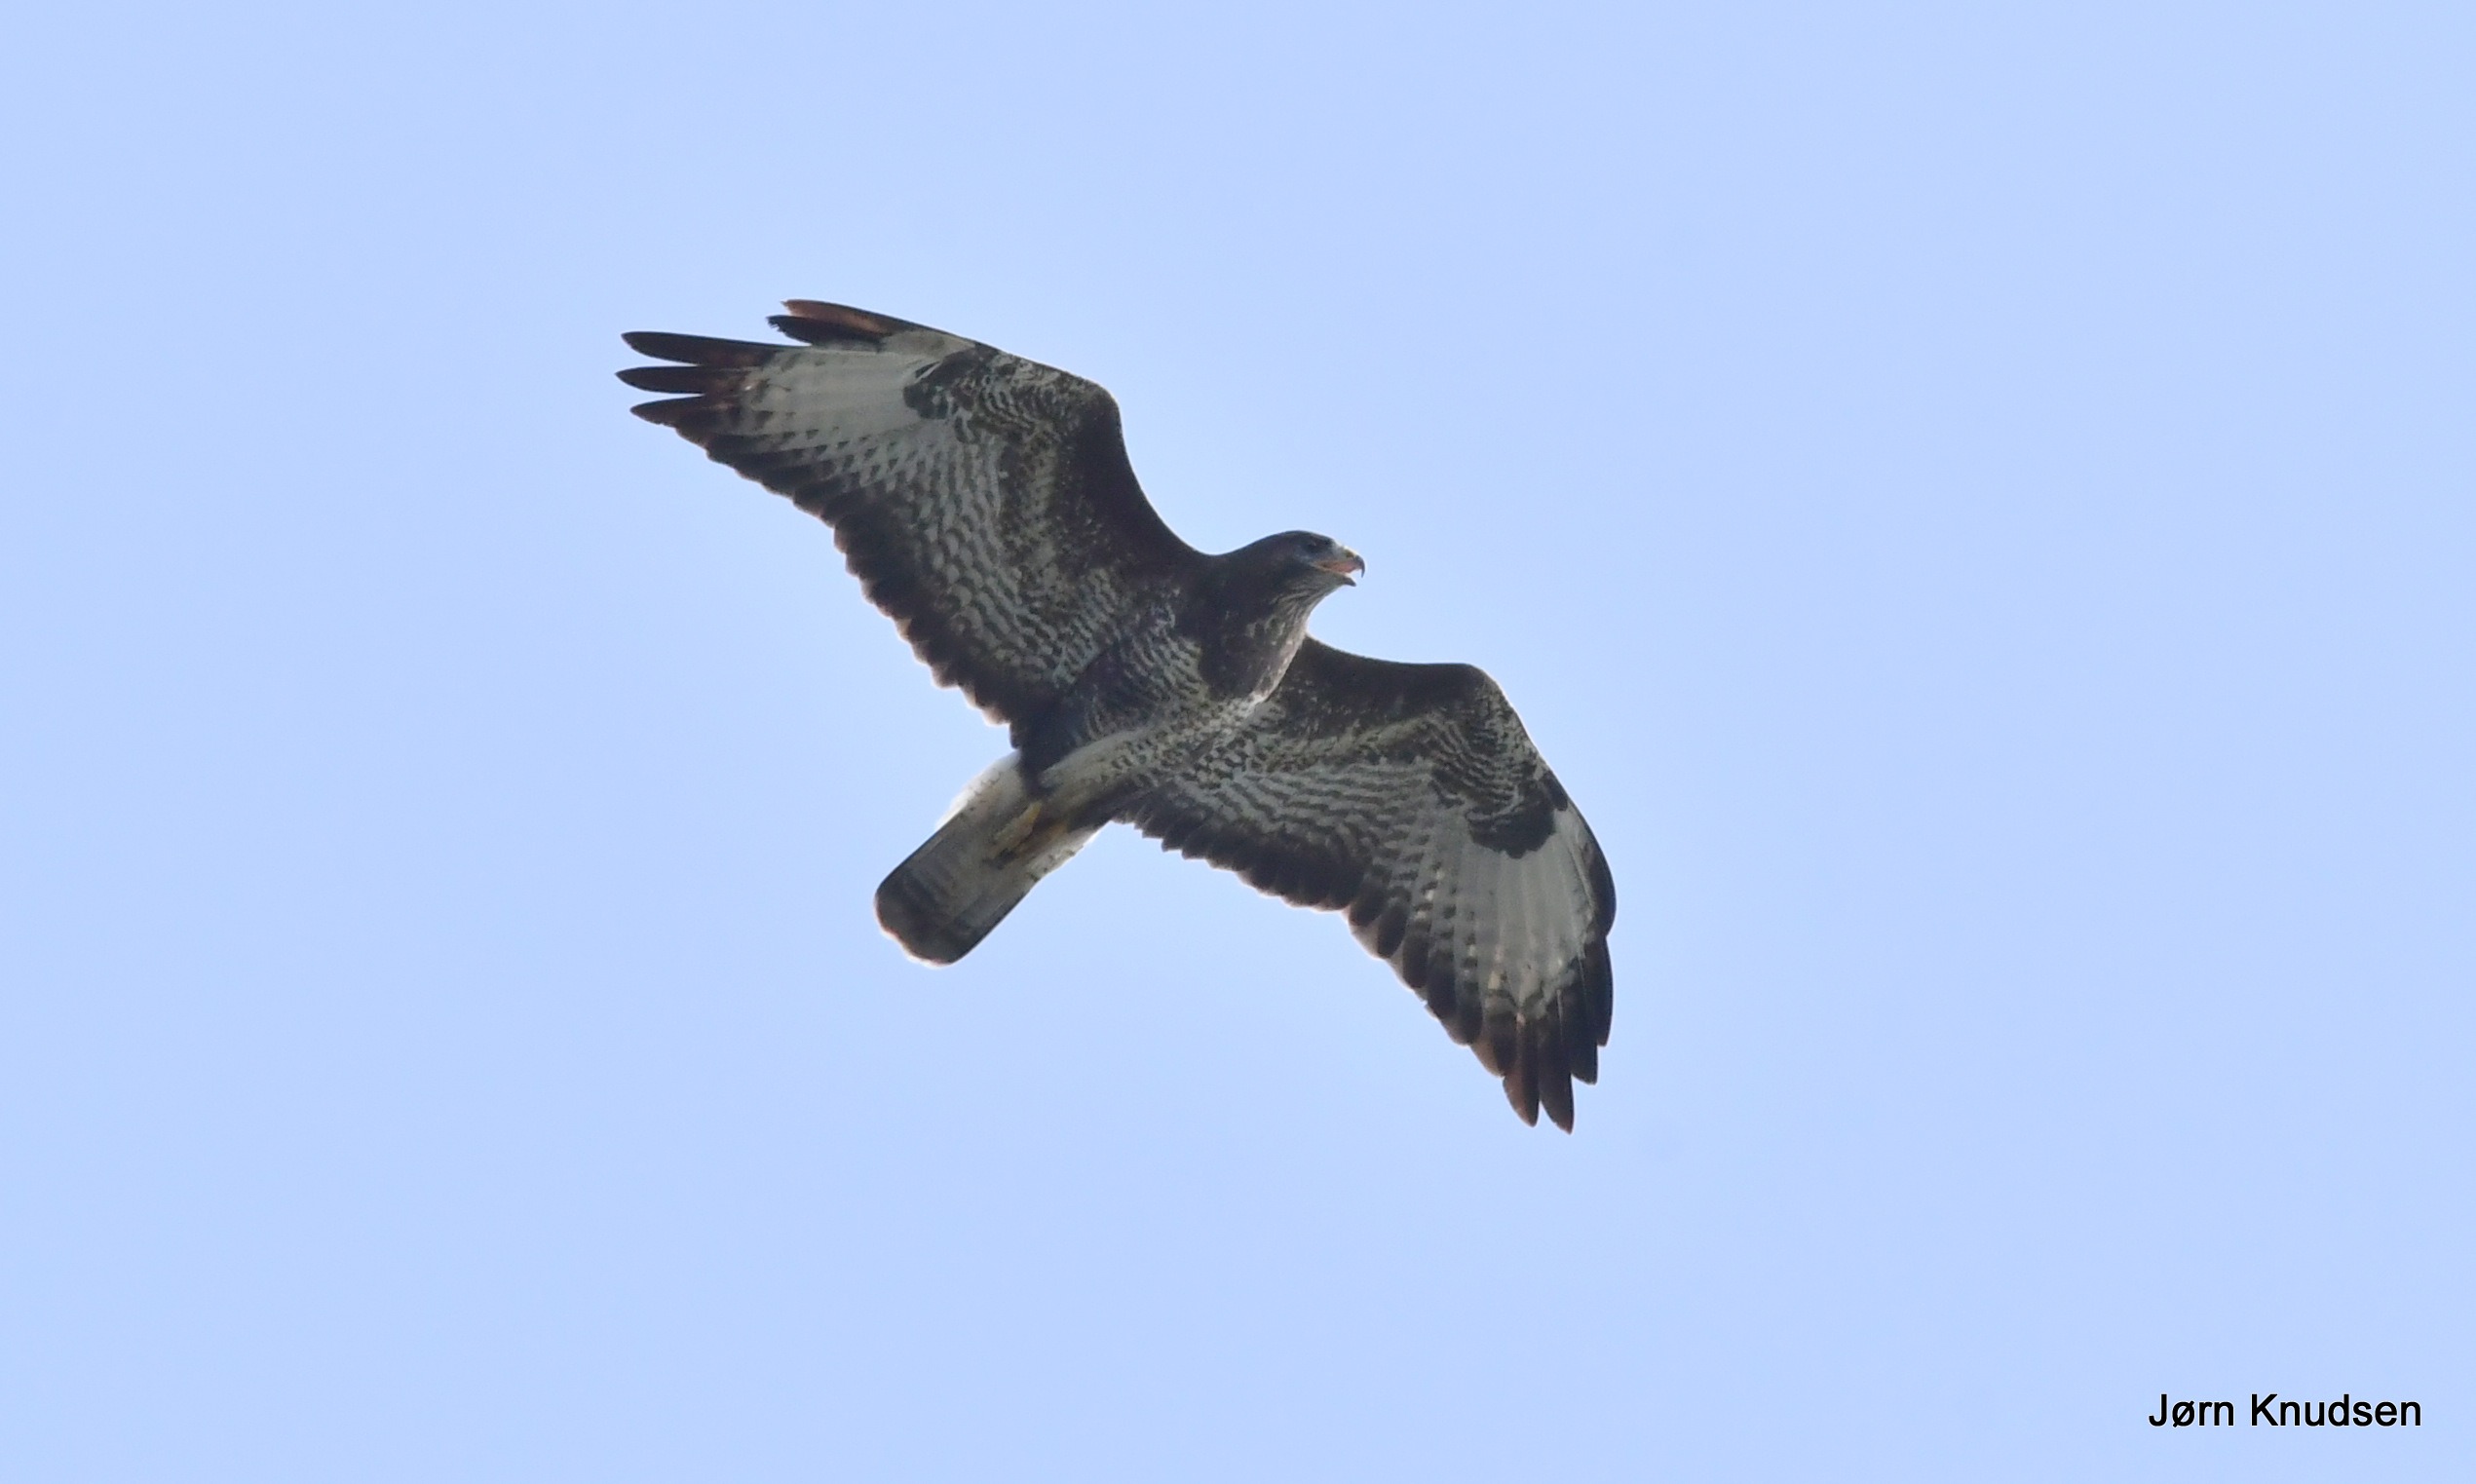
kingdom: Animalia
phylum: Chordata
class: Aves
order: Accipitriformes
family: Accipitridae
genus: Buteo
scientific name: Buteo buteo
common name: Musvåge
